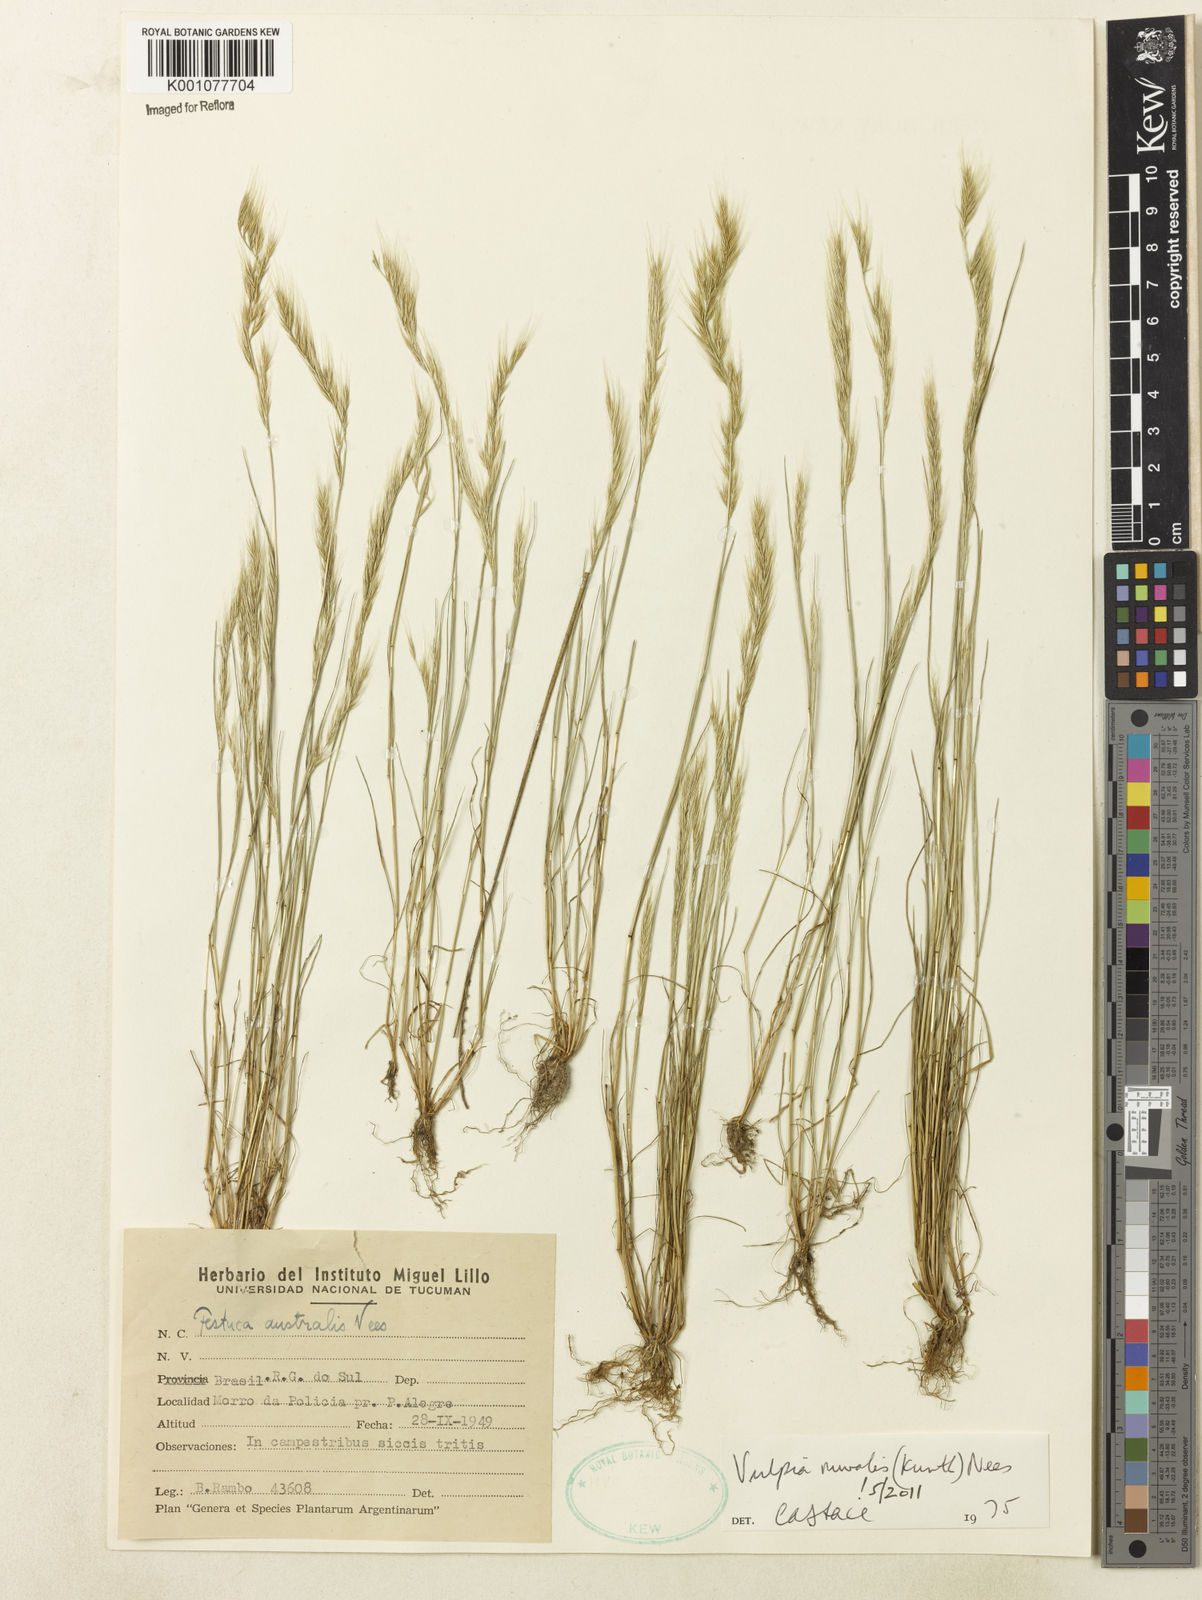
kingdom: Plantae
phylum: Tracheophyta
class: Liliopsida
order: Poales
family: Poaceae
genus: Festuca
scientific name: Festuca muralis
